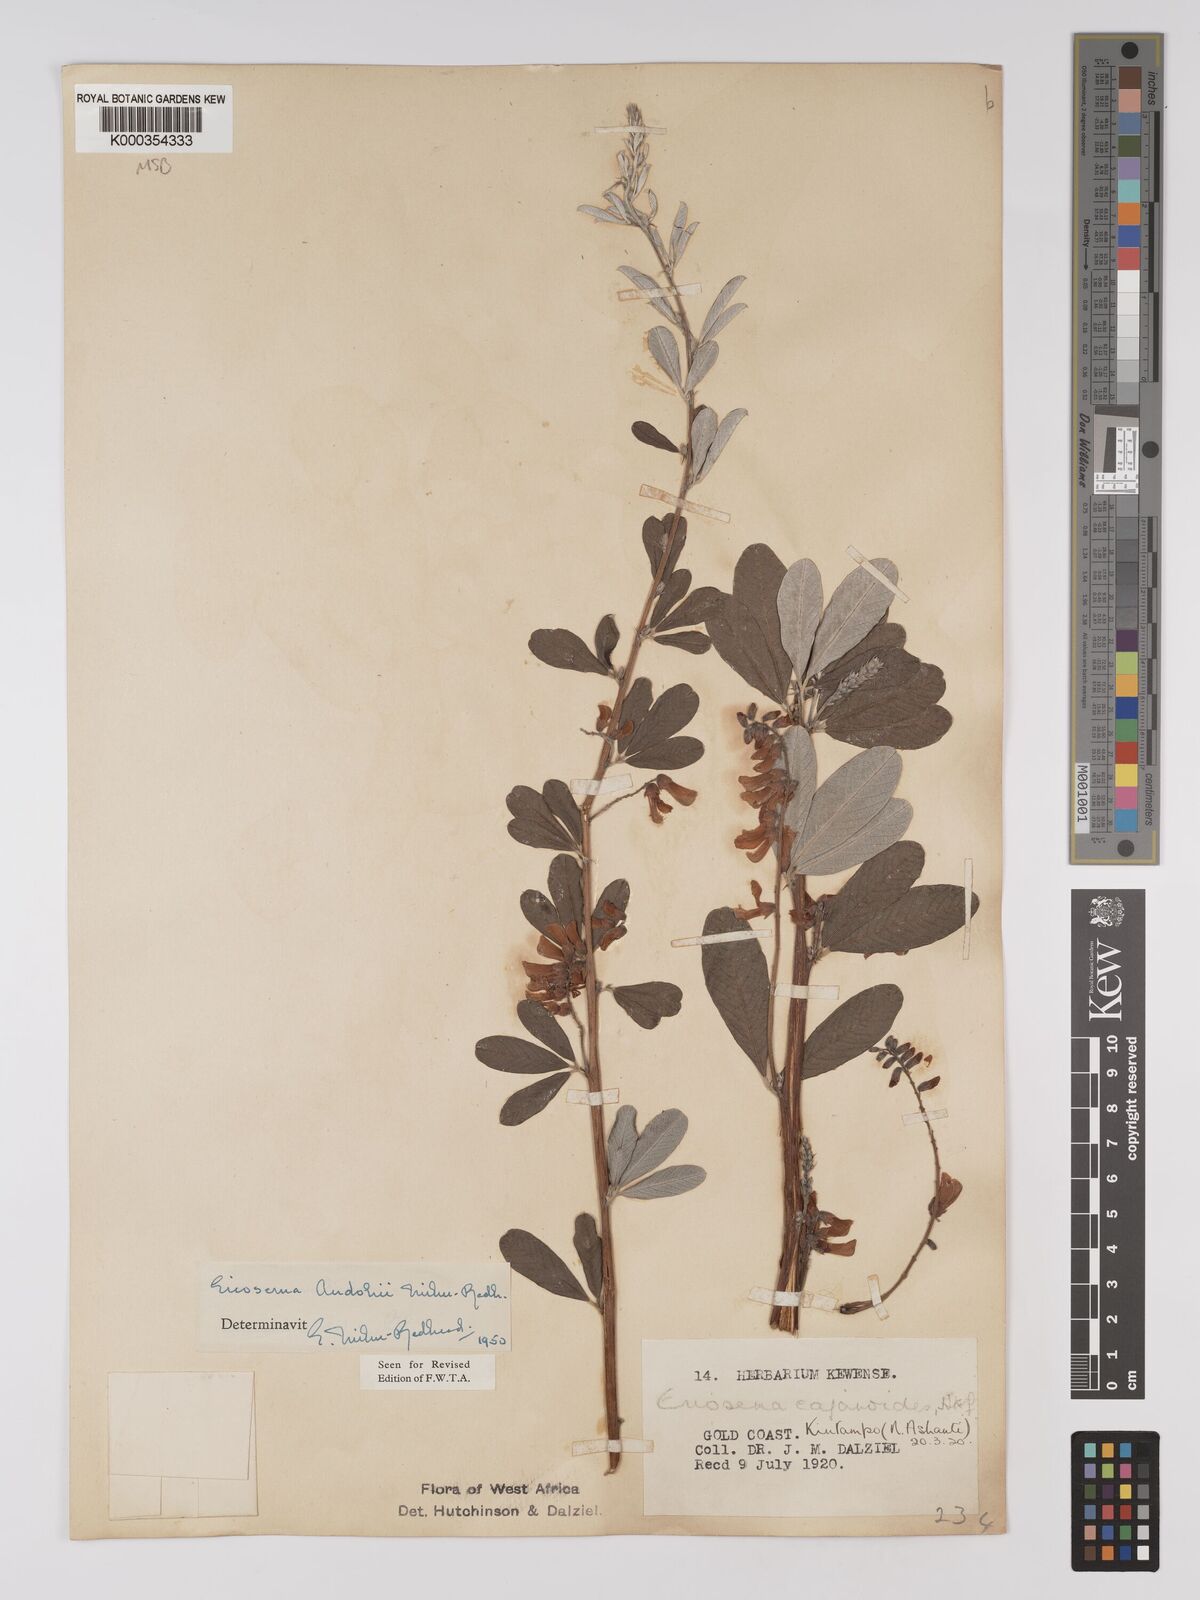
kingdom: Plantae
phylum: Tracheophyta
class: Magnoliopsida
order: Fabales
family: Fabaceae
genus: Eriosema
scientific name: Eriosema andohii
